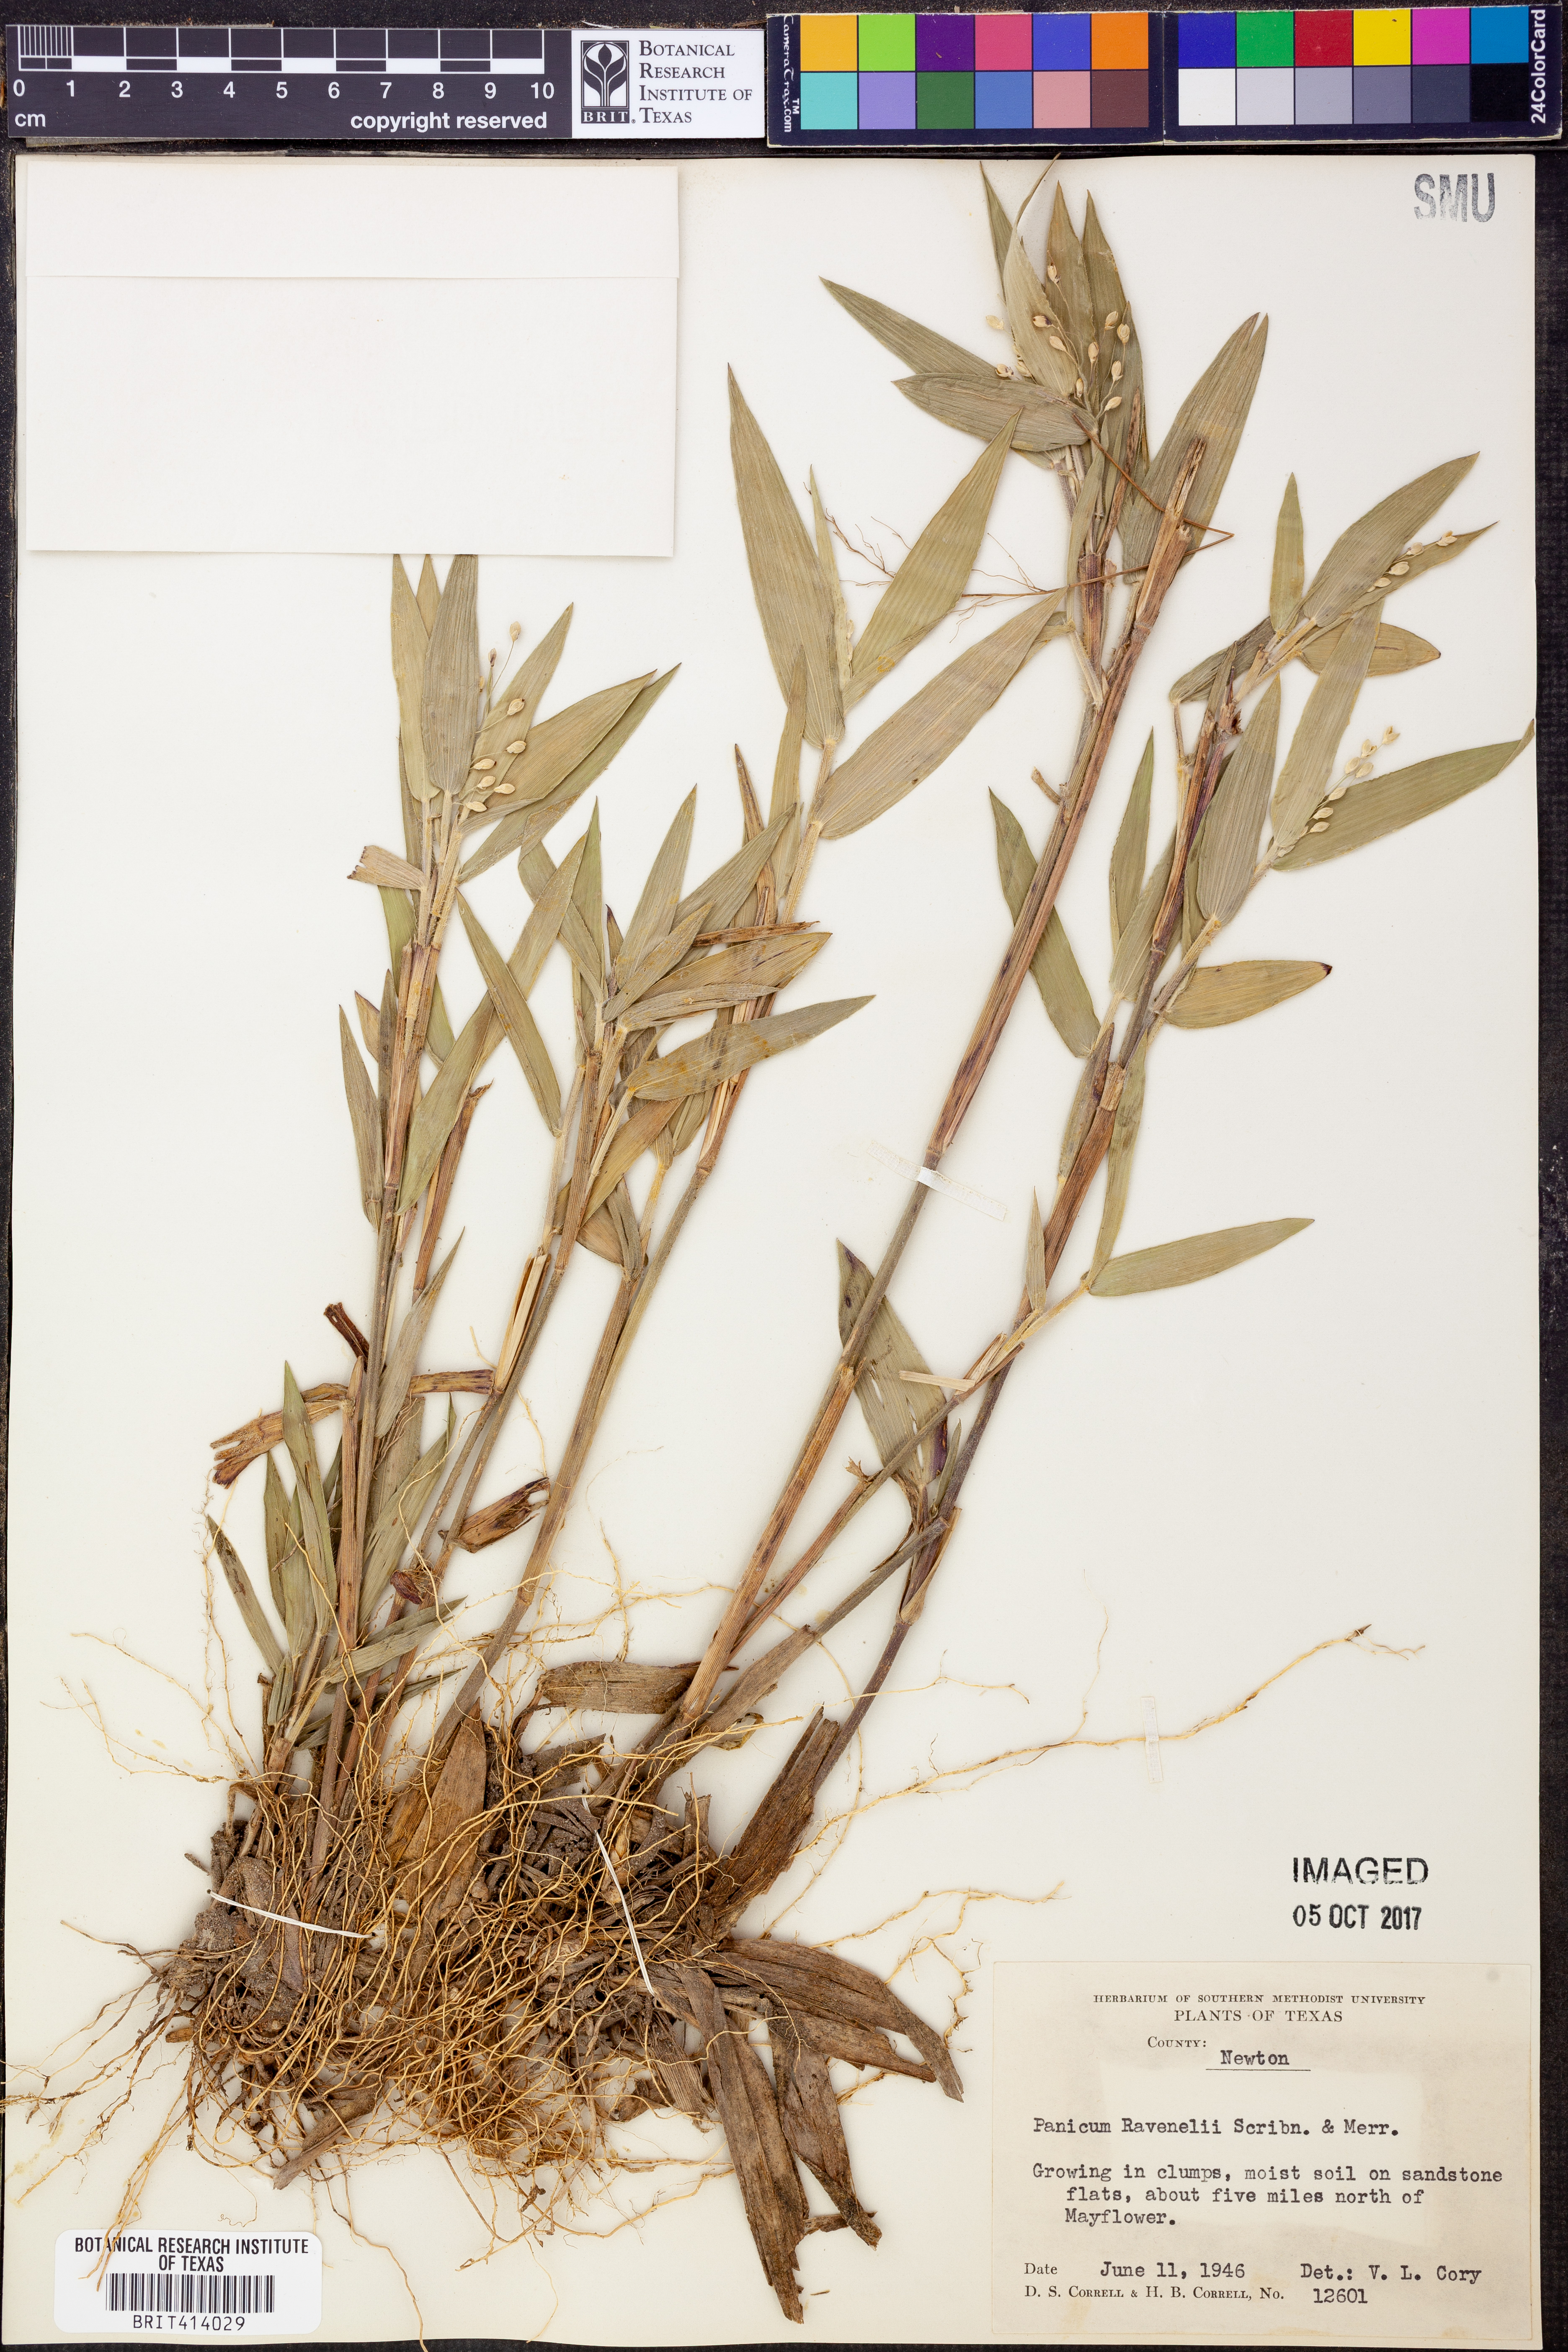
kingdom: Plantae
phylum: Tracheophyta
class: Liliopsida
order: Poales
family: Poaceae
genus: Dichanthelium
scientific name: Dichanthelium ravenelii
